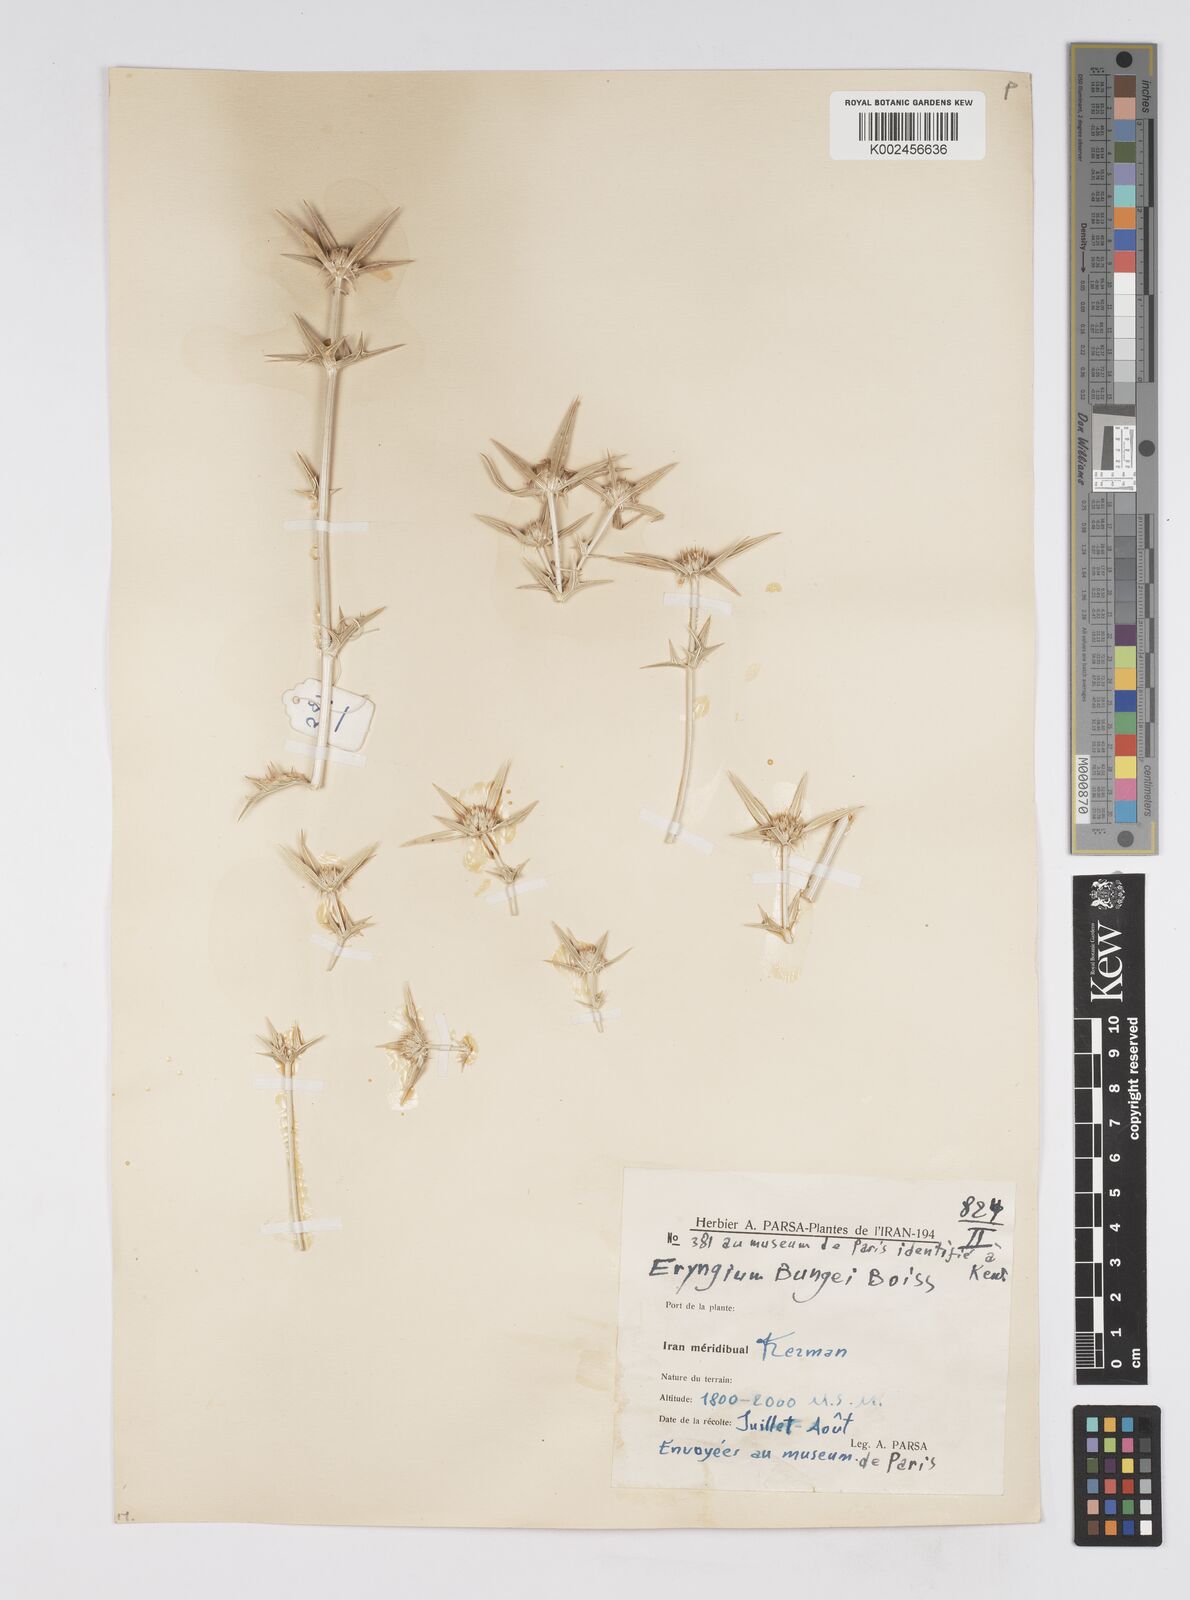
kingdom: Plantae
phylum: Tracheophyta
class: Magnoliopsida
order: Apiales
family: Apiaceae
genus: Eryngium
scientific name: Eryngium bungei
